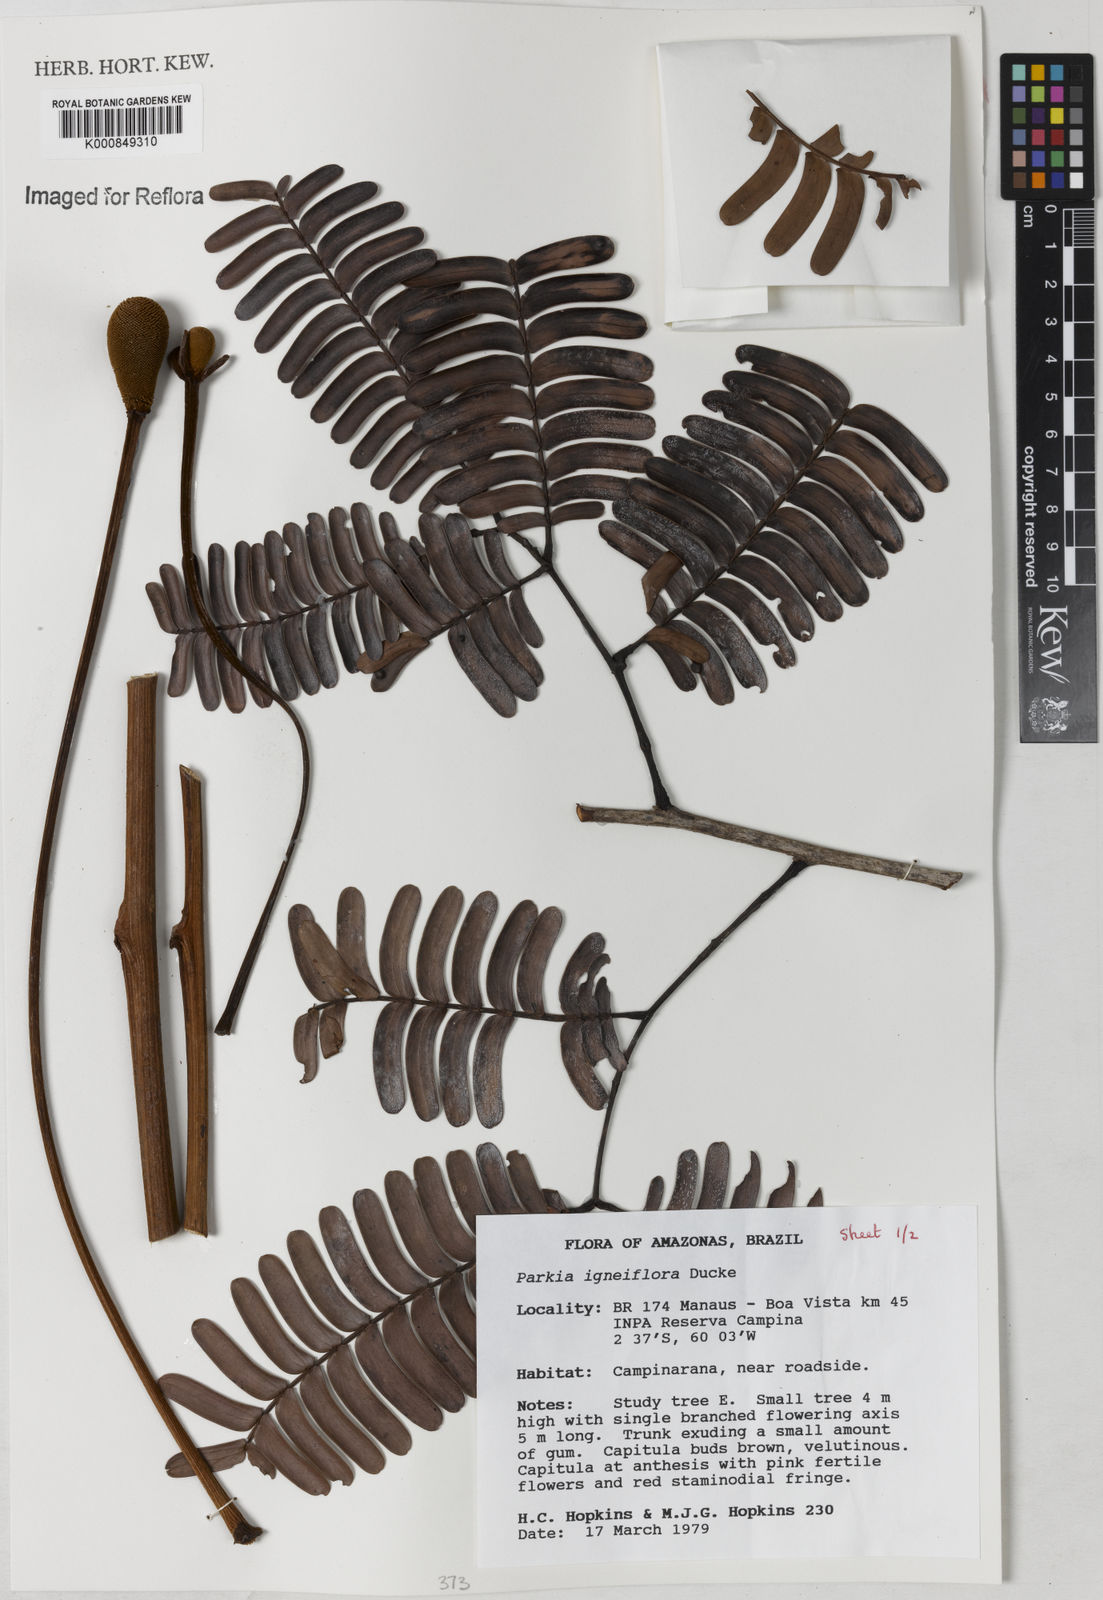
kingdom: Plantae
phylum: Tracheophyta
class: Magnoliopsida
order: Fabales
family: Fabaceae
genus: Parkia
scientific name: Parkia igneiflora
